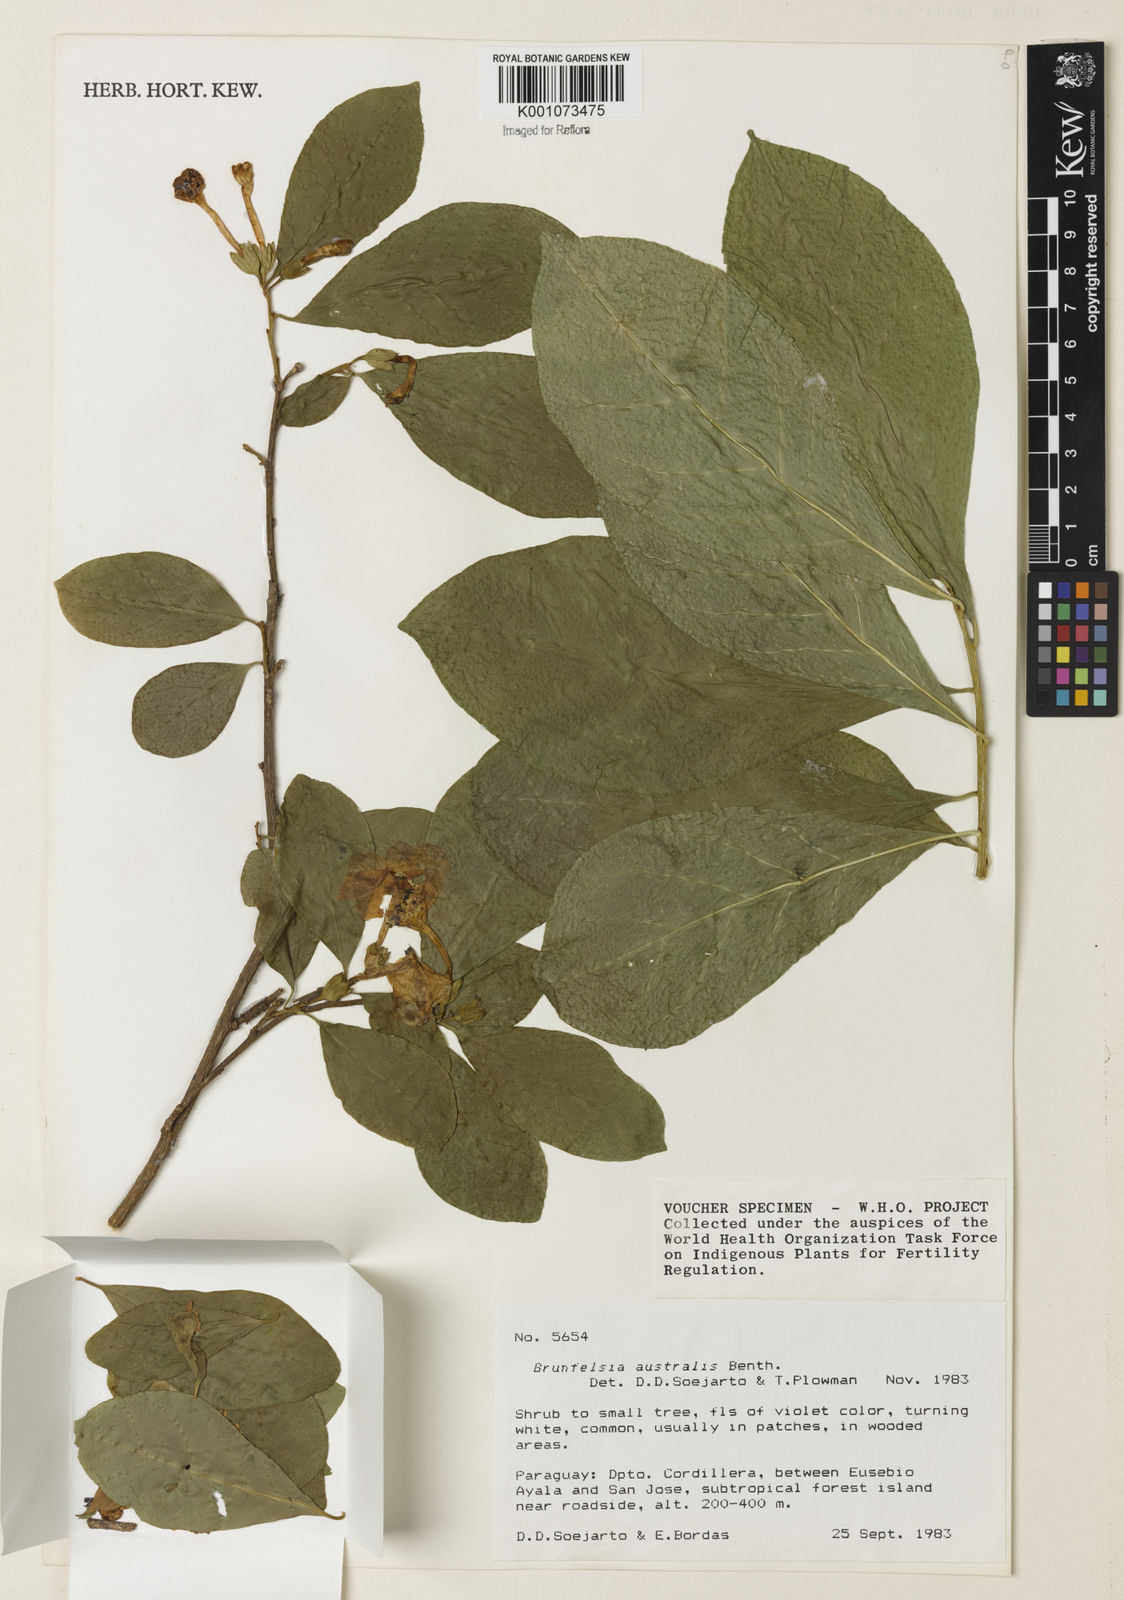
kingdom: Plantae
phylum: Tracheophyta
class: Magnoliopsida
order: Solanales
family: Solanaceae
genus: Brunfelsia
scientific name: Brunfelsia australis
